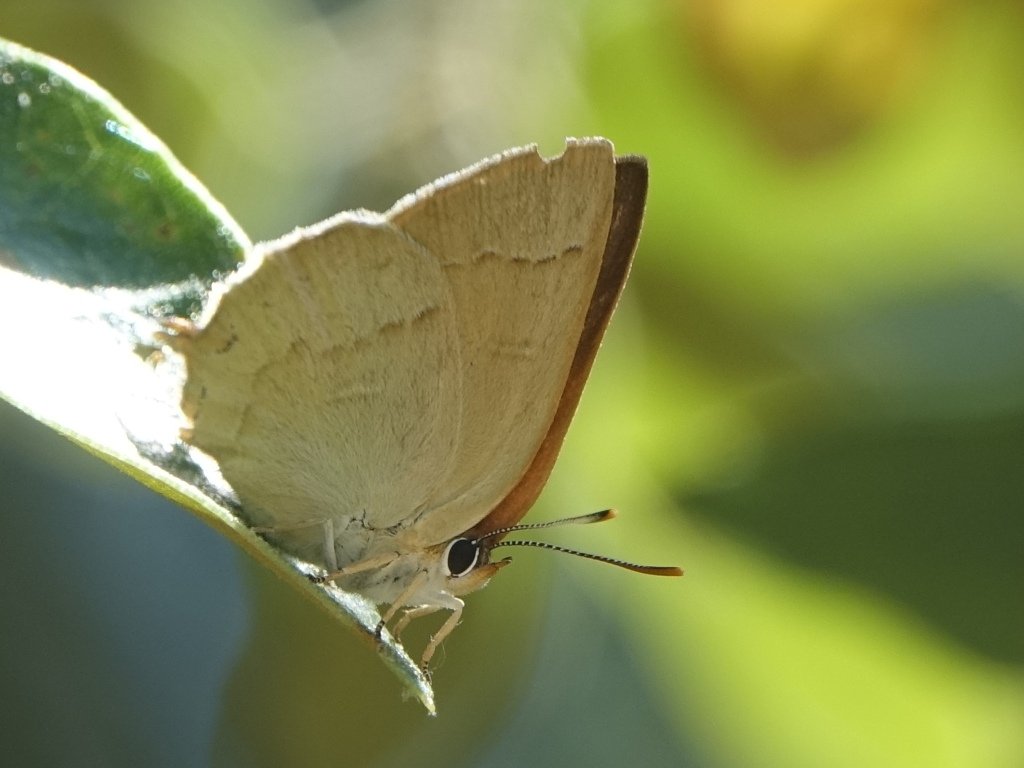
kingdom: Animalia
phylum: Arthropoda
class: Insecta
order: Lepidoptera
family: Lycaenidae
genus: Habrodais
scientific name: Habrodais grunus
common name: Golden Hairstreak
